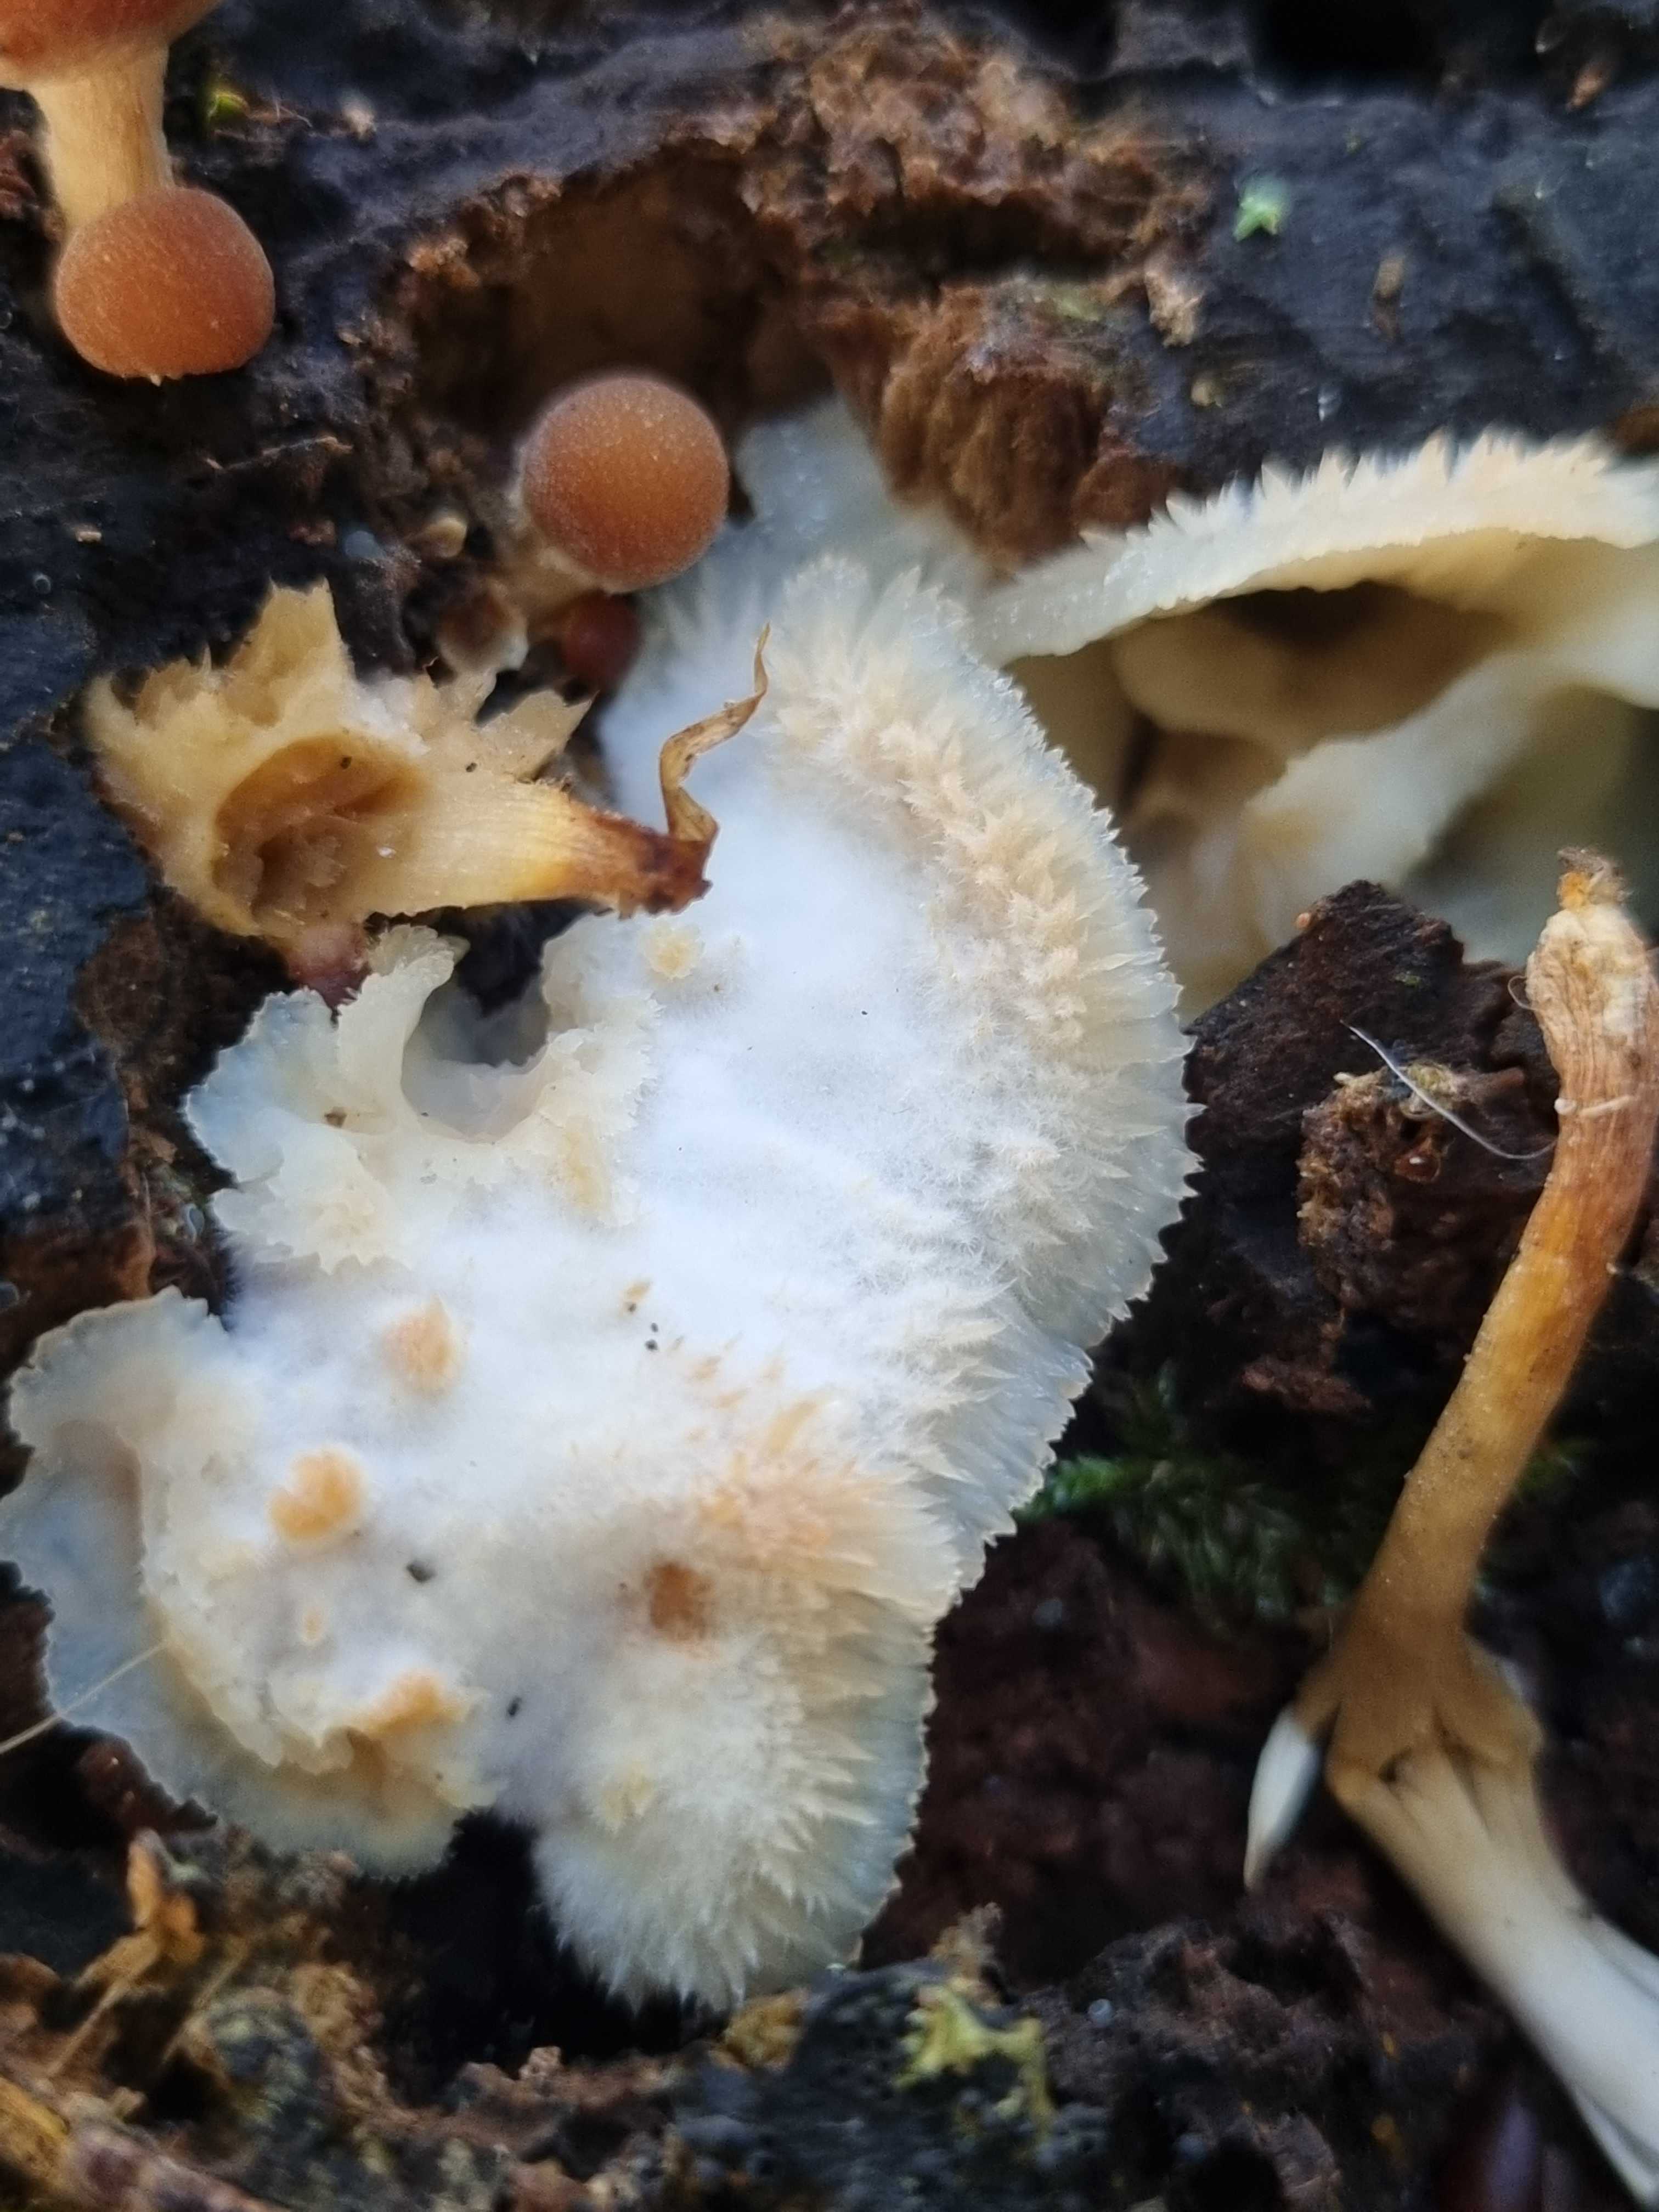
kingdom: Fungi
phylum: Basidiomycota
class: Agaricomycetes
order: Polyporales
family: Meruliaceae
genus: Phlebia
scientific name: Phlebia tremellosa
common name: bævrende åresvamp
